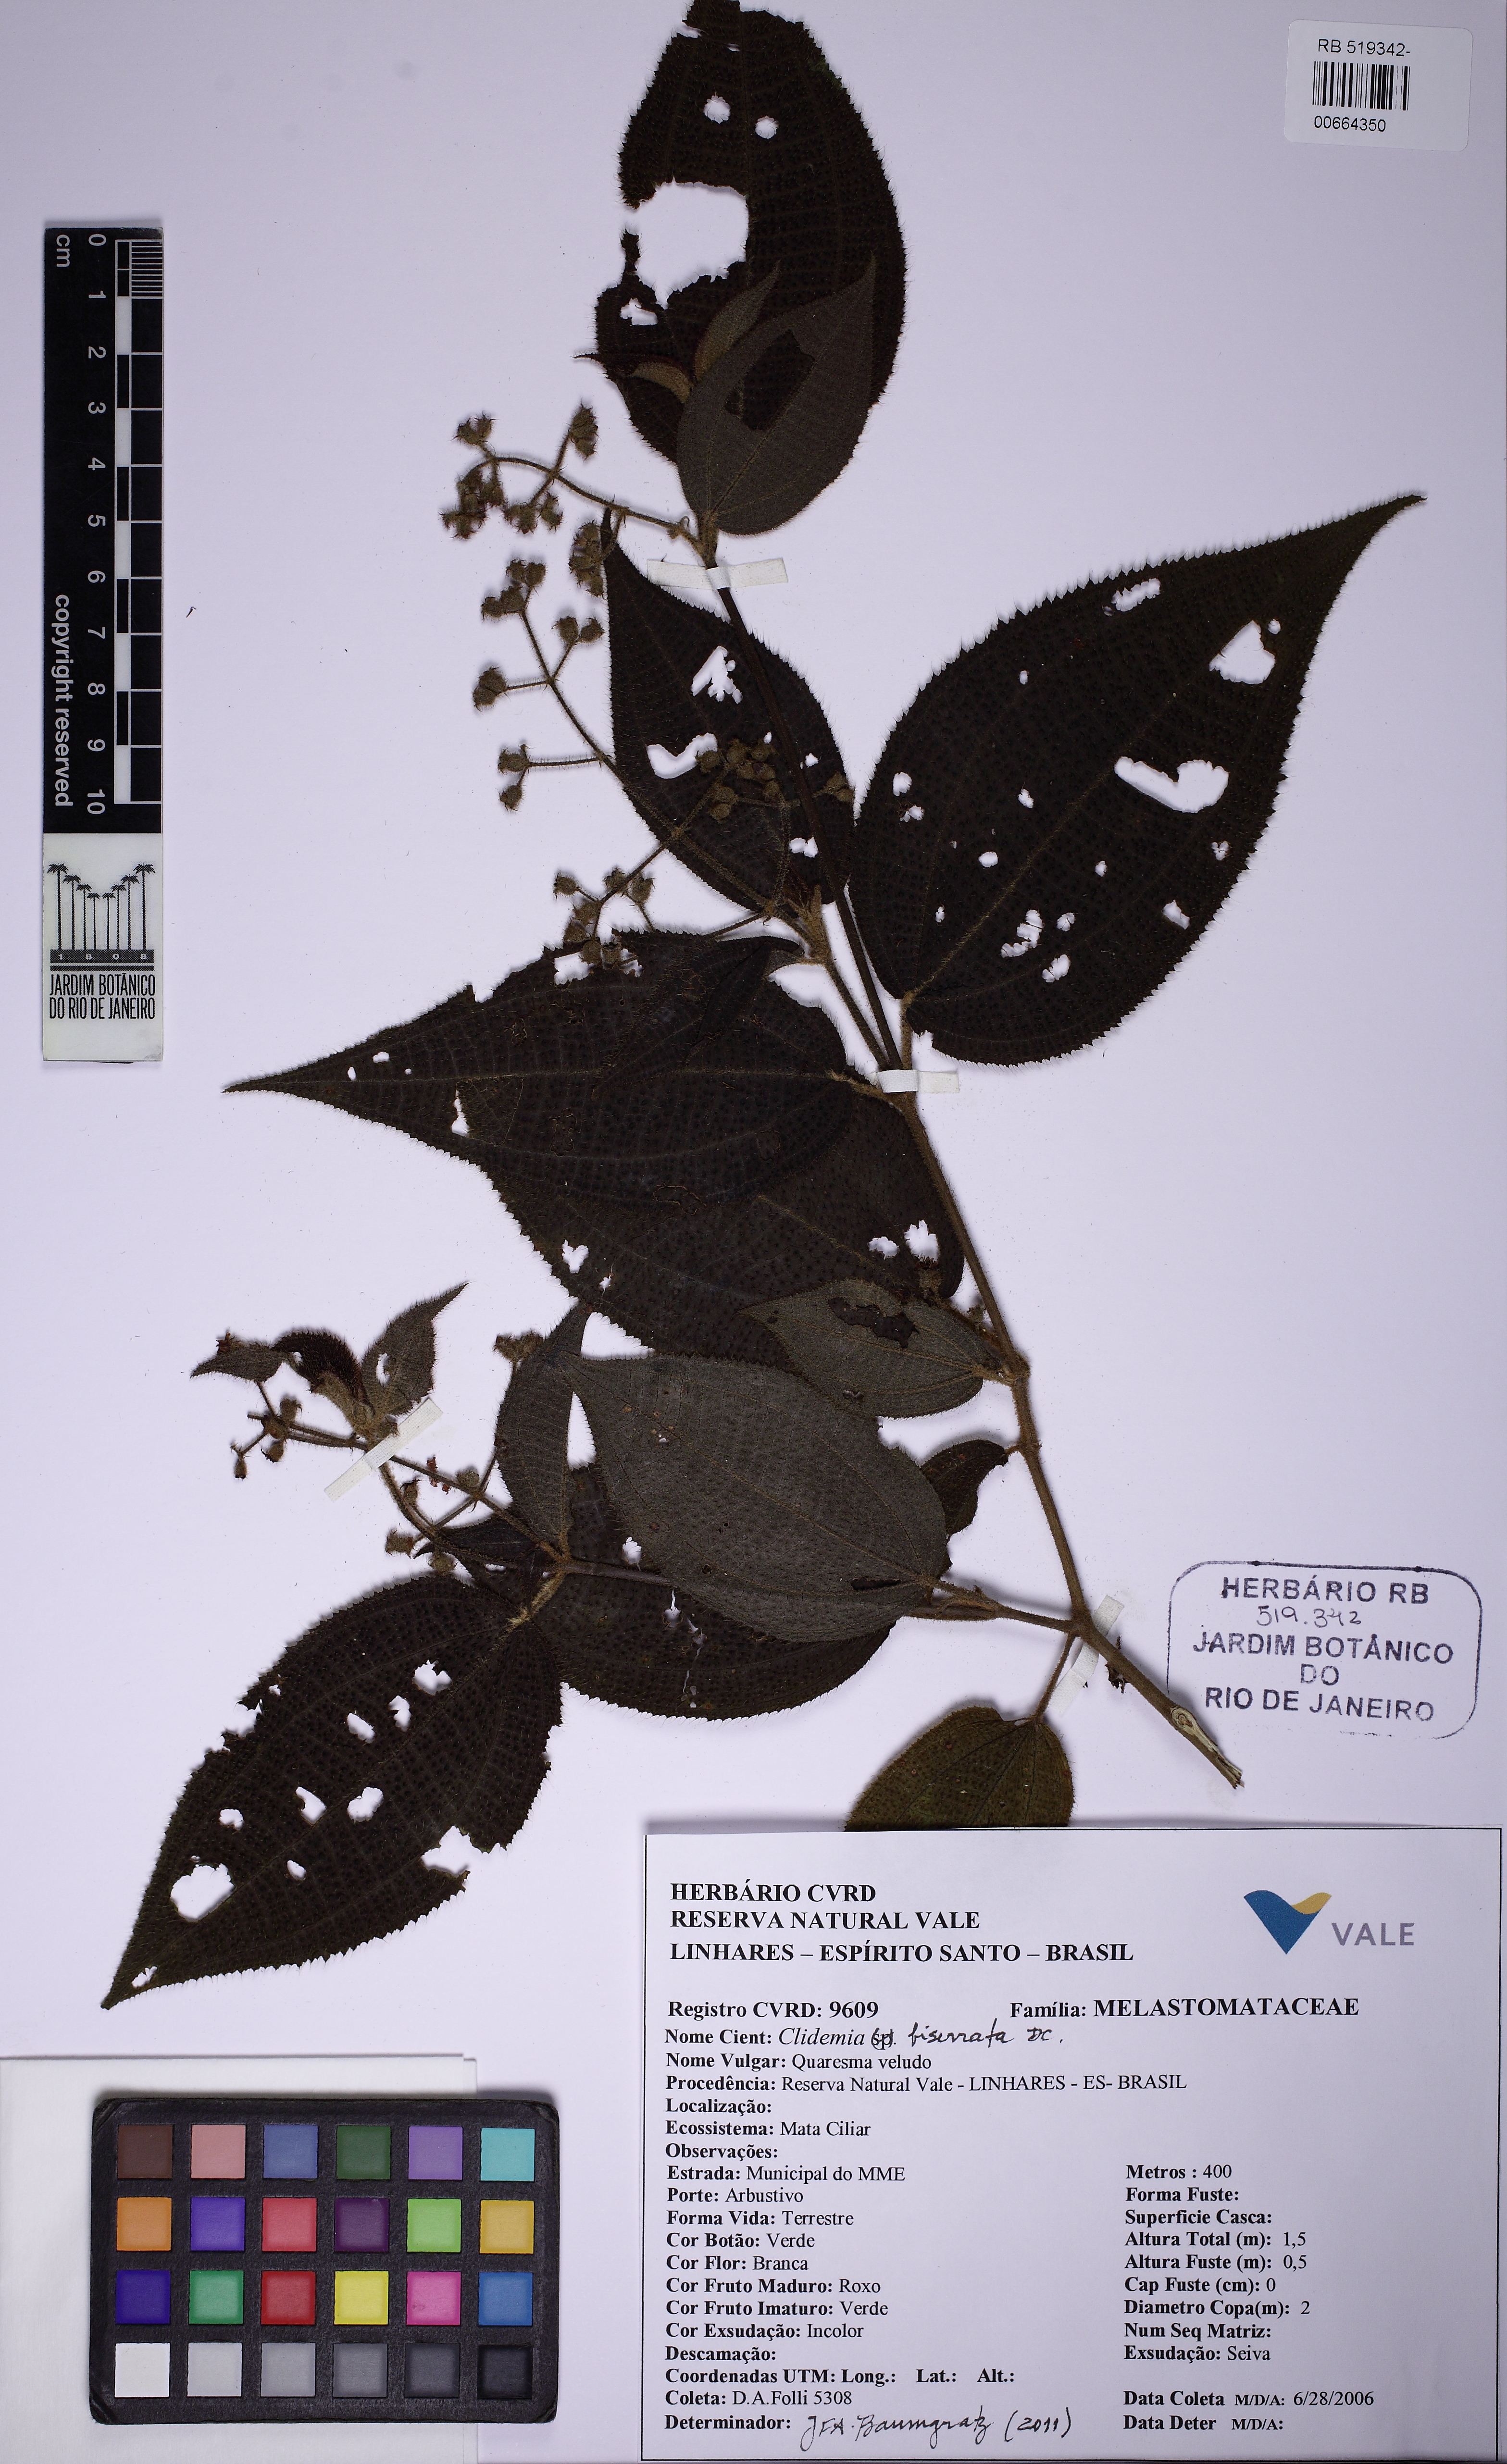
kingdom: Plantae
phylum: Tracheophyta
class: Magnoliopsida
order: Myrtales
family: Melastomataceae
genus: Miconia
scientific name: Miconia biserrata
